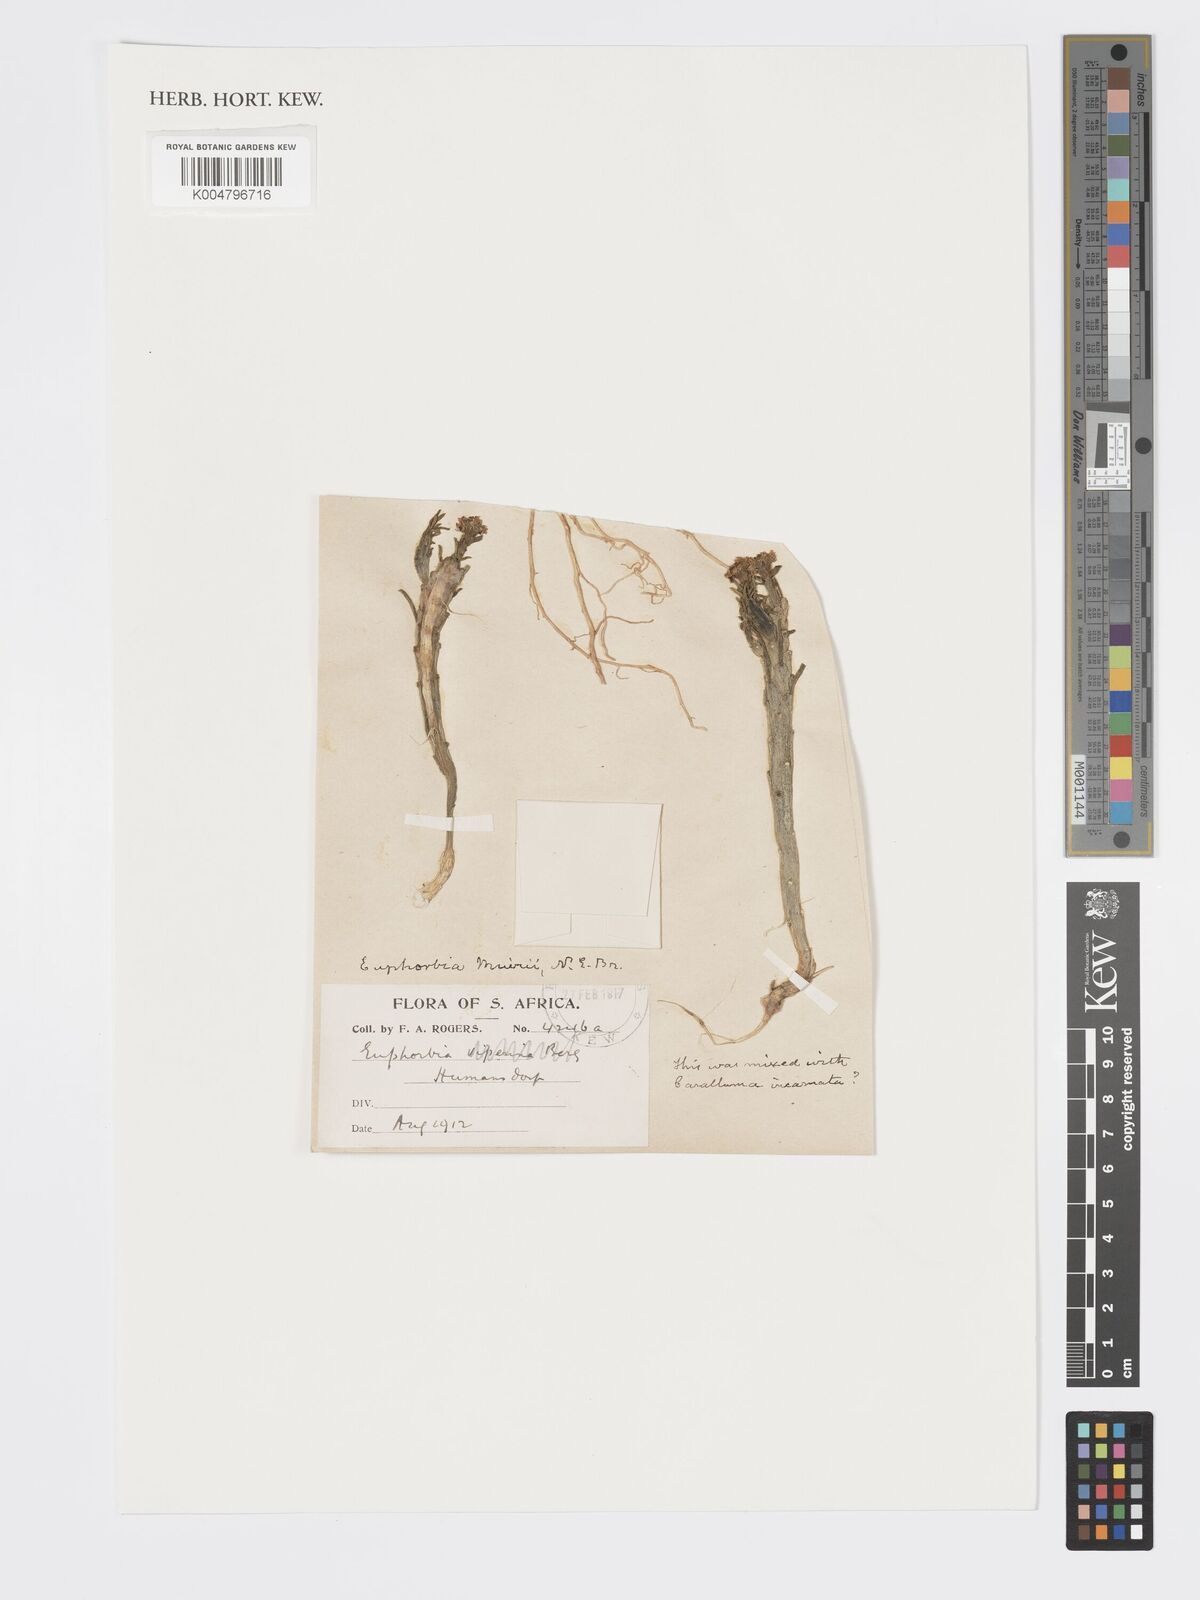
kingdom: Plantae
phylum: Tracheophyta
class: Magnoliopsida
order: Malpighiales
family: Euphorbiaceae
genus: Euphorbia
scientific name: Euphorbia muirii
